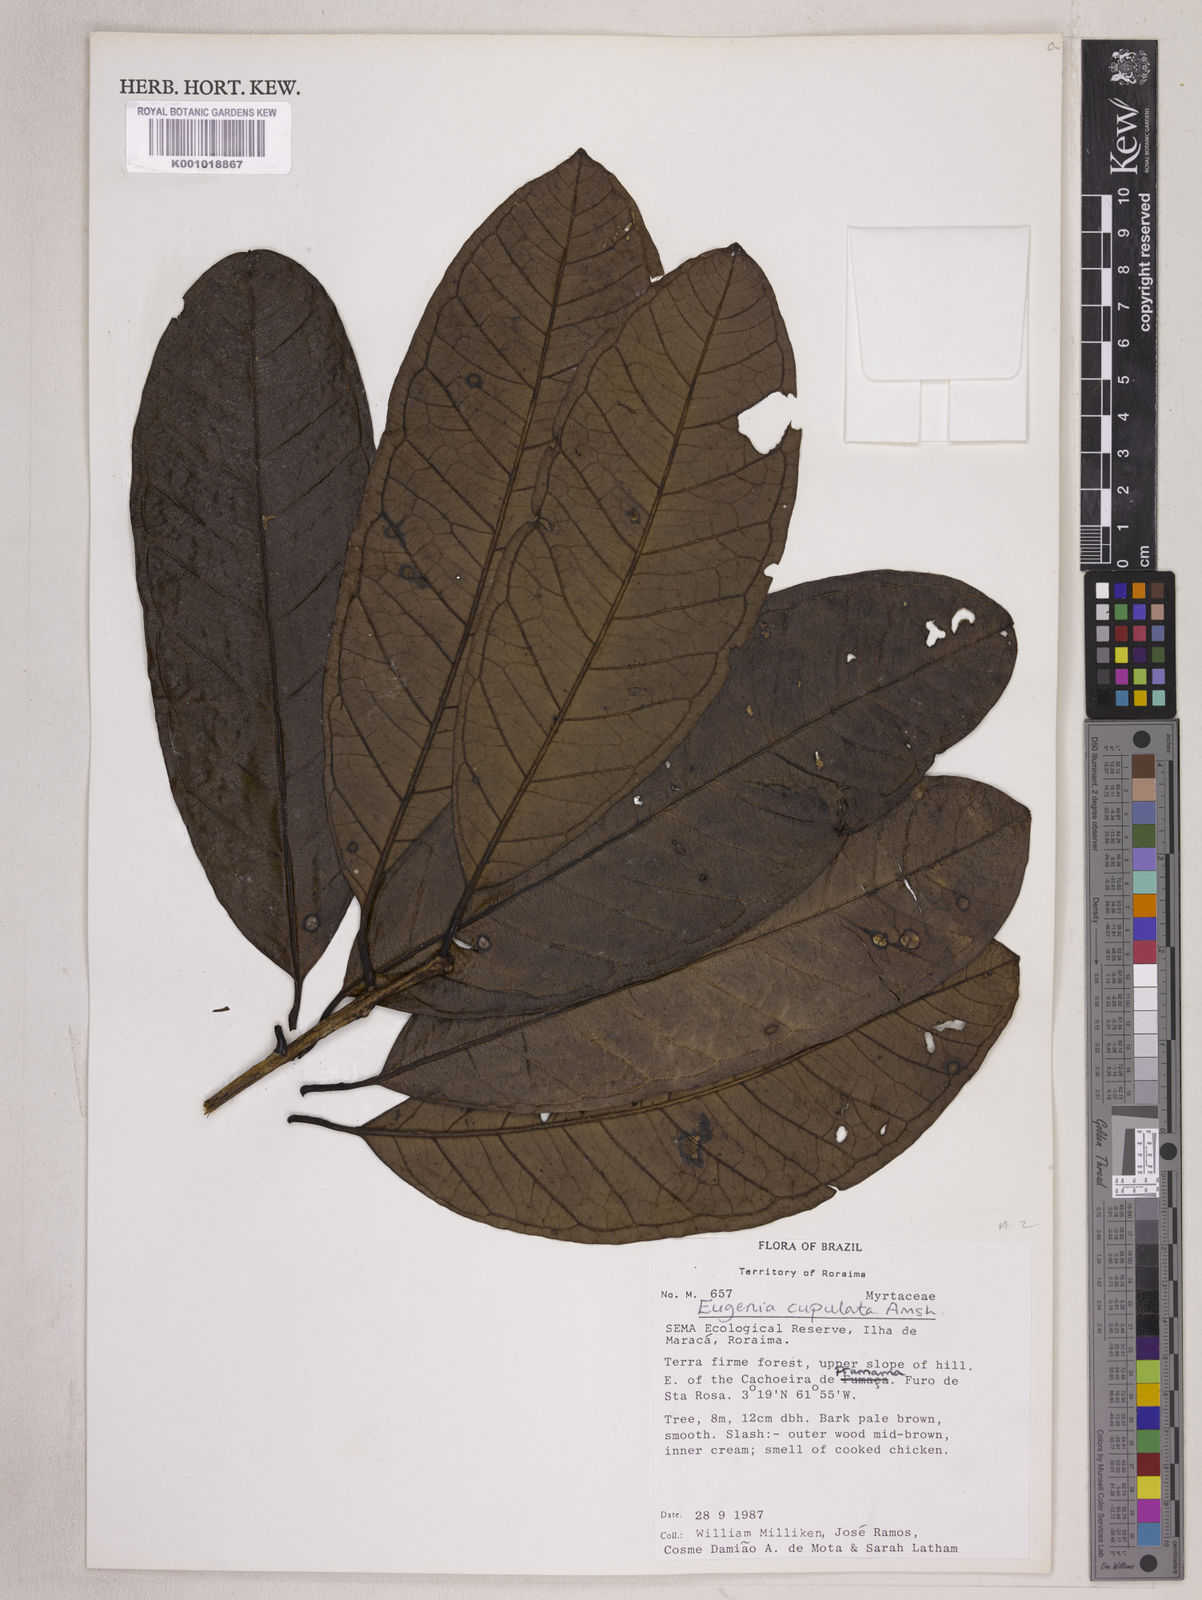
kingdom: Plantae
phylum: Tracheophyta
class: Magnoliopsida
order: Myrtales
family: Myrtaceae
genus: Eugenia
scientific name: Eugenia cupulata
